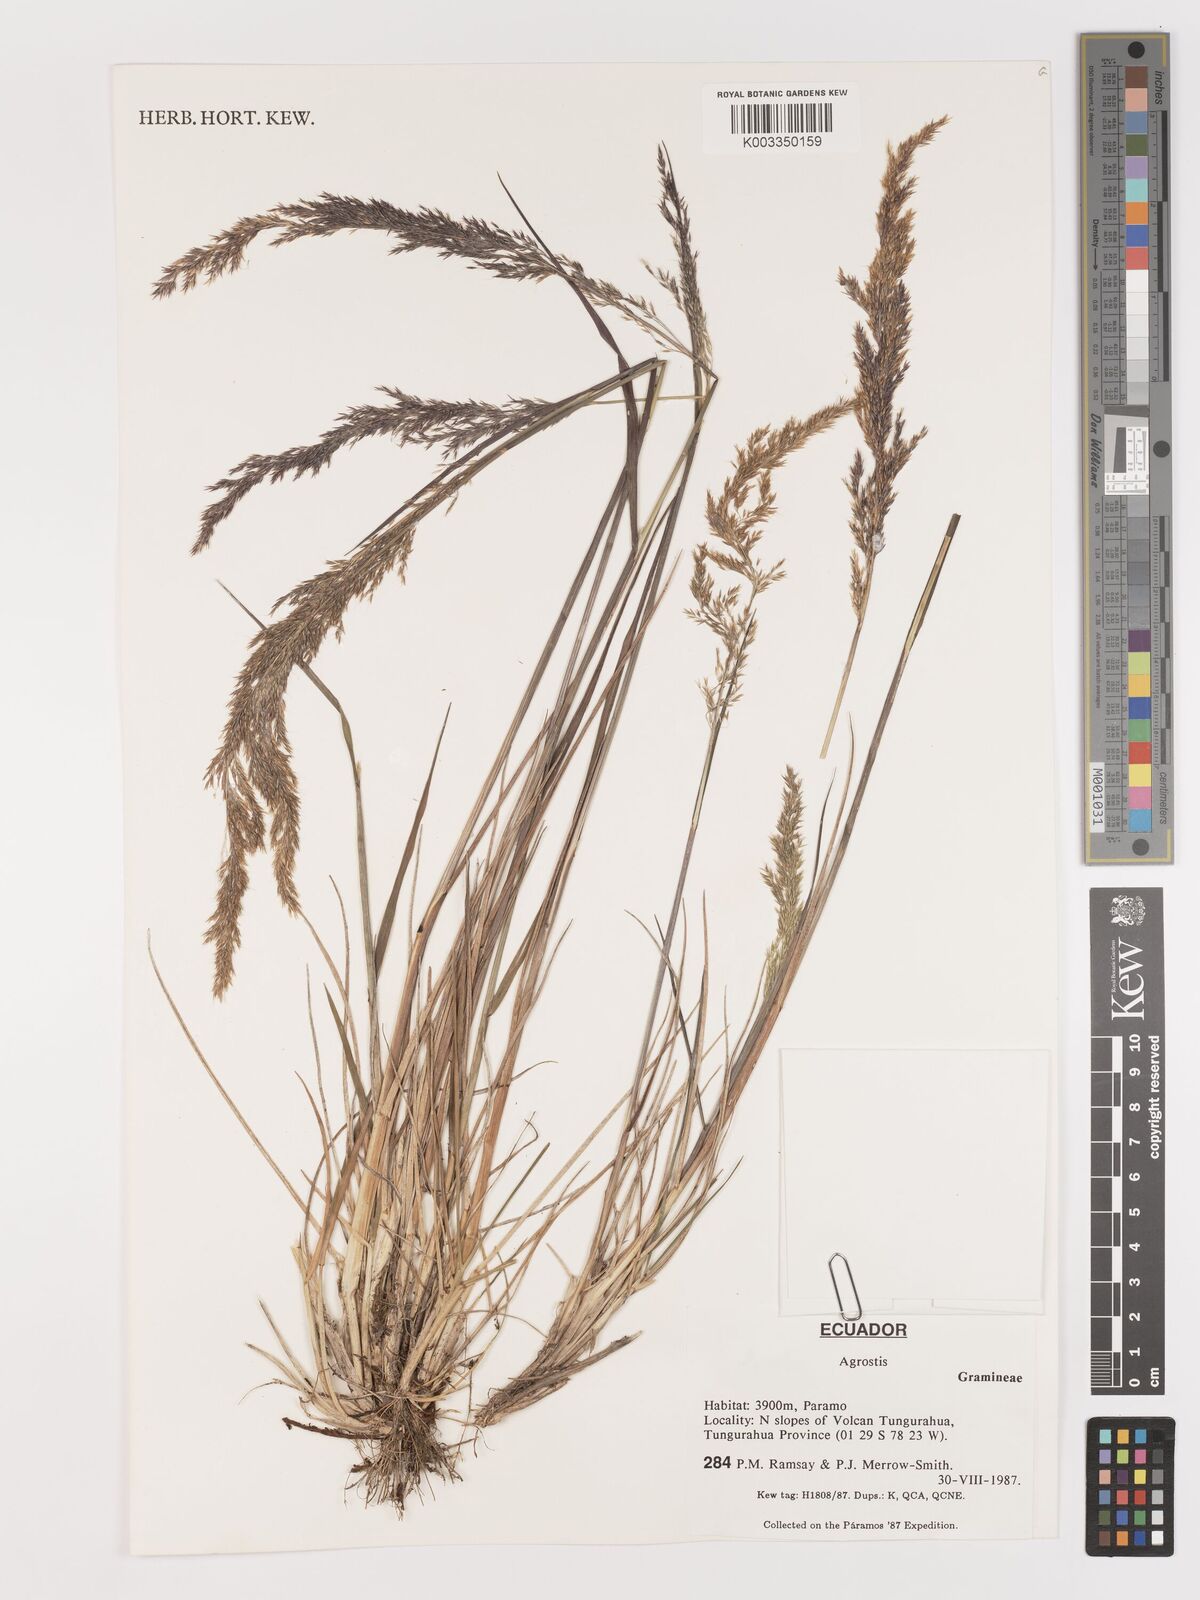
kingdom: Plantae
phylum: Tracheophyta
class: Liliopsida
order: Poales
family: Poaceae
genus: Agrostis
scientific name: Agrostis
